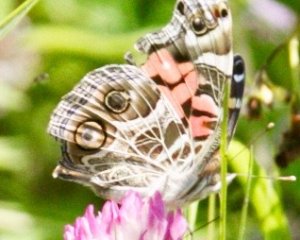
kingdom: Animalia
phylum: Arthropoda
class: Insecta
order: Lepidoptera
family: Nymphalidae
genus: Vanessa
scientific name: Vanessa virginiensis
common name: American Lady
